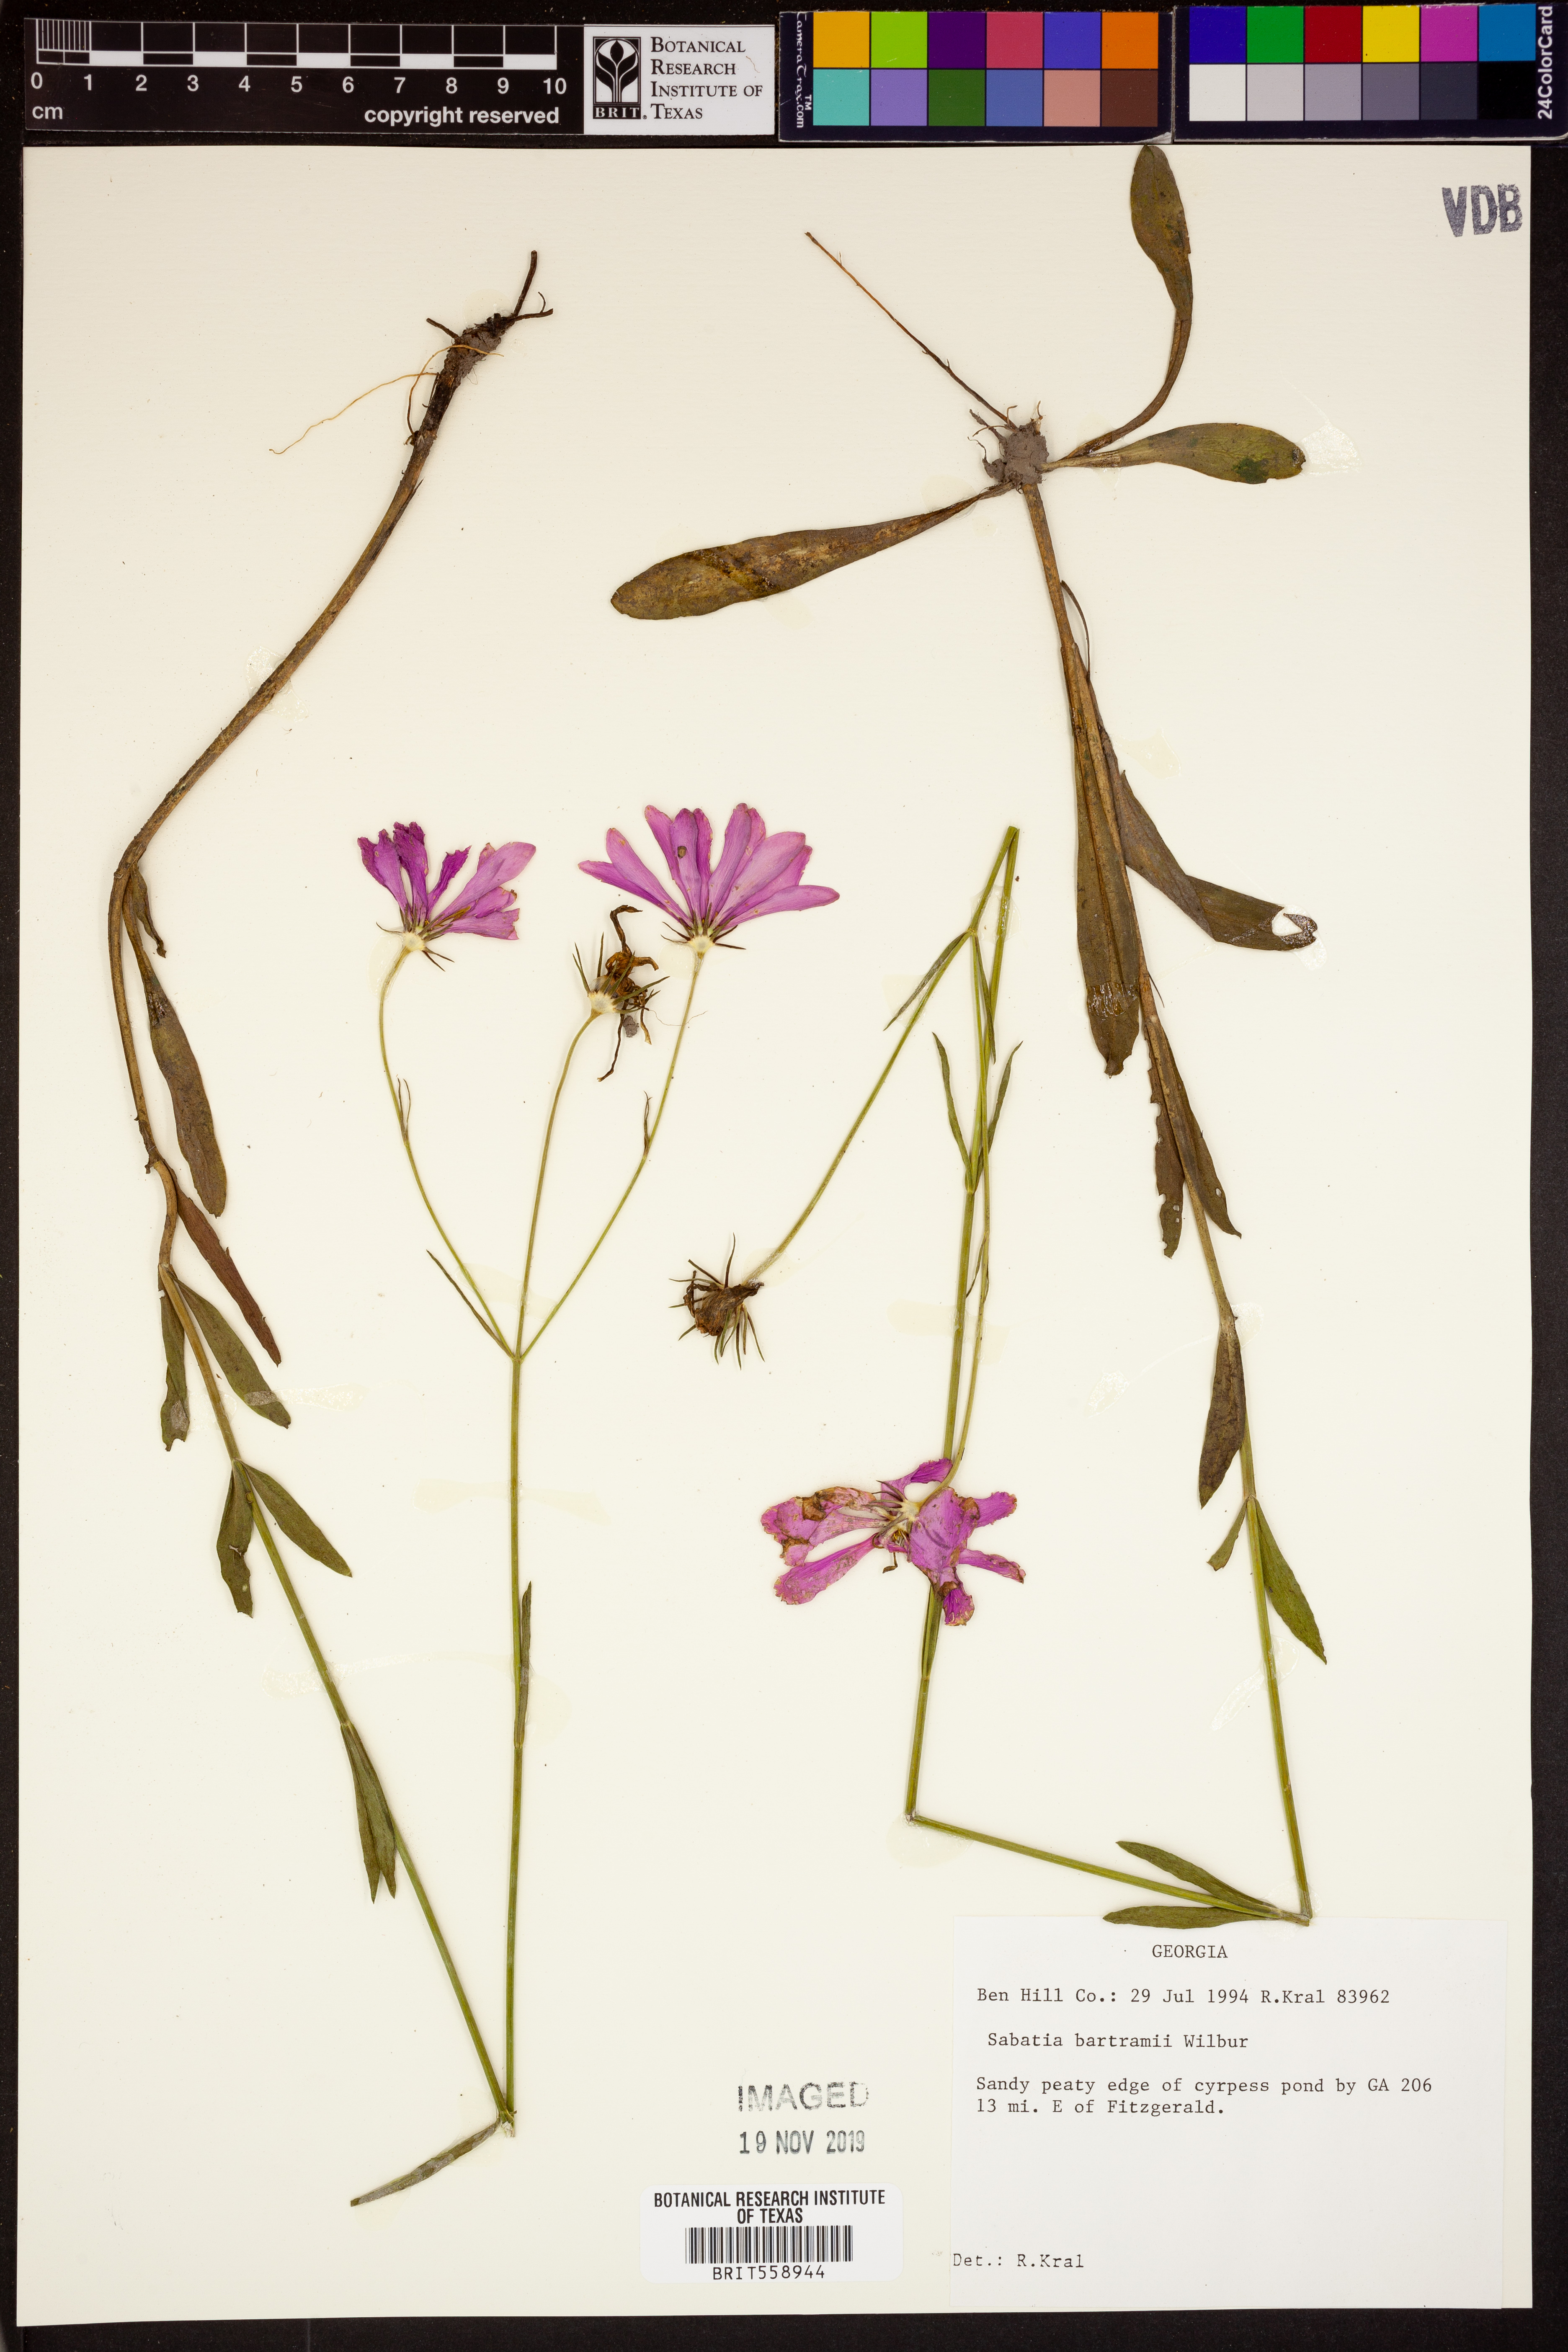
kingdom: Plantae
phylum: Tracheophyta
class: Magnoliopsida
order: Gentianales
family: Gentianaceae
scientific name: Gentianaceae
